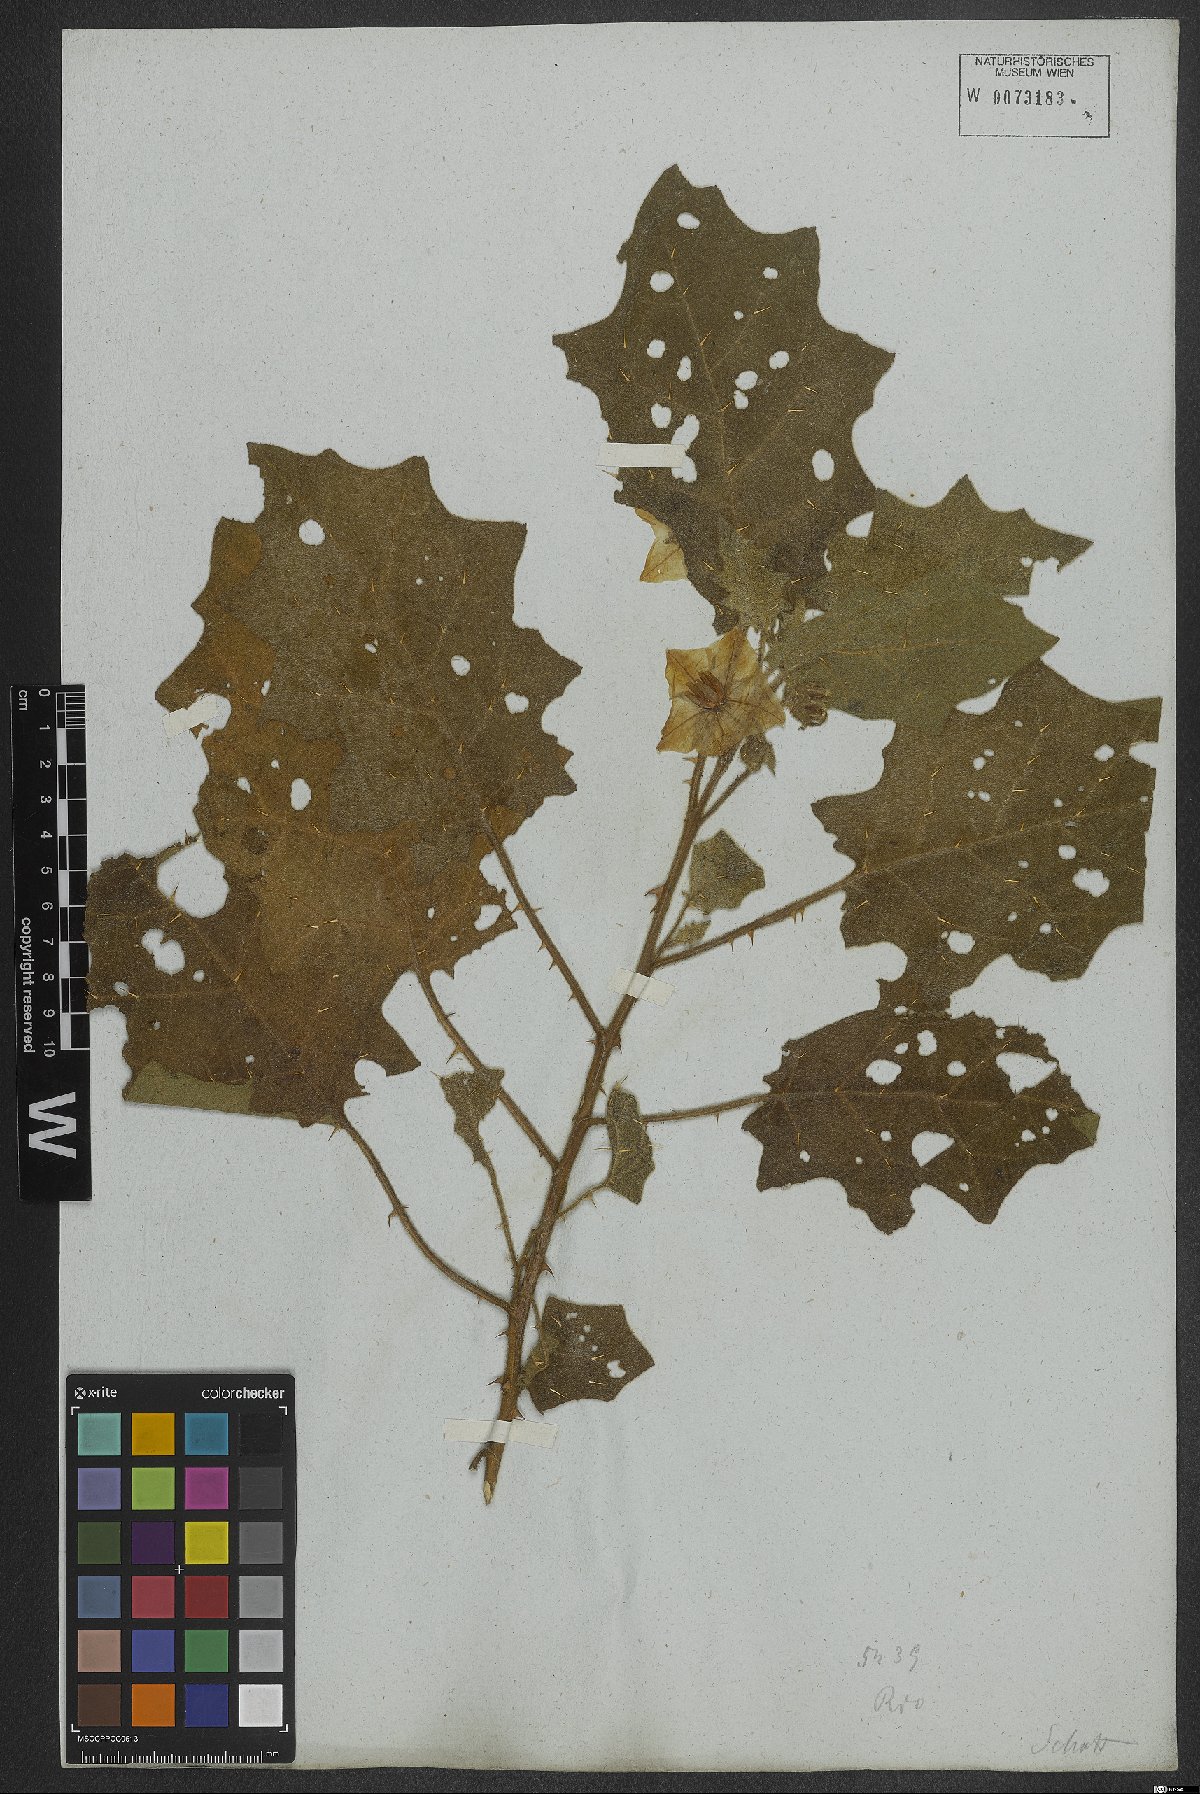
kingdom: Plantae
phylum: Tracheophyta
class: Magnoliopsida
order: Solanales
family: Solanaceae
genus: Solanum
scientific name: Solanum sublentum
